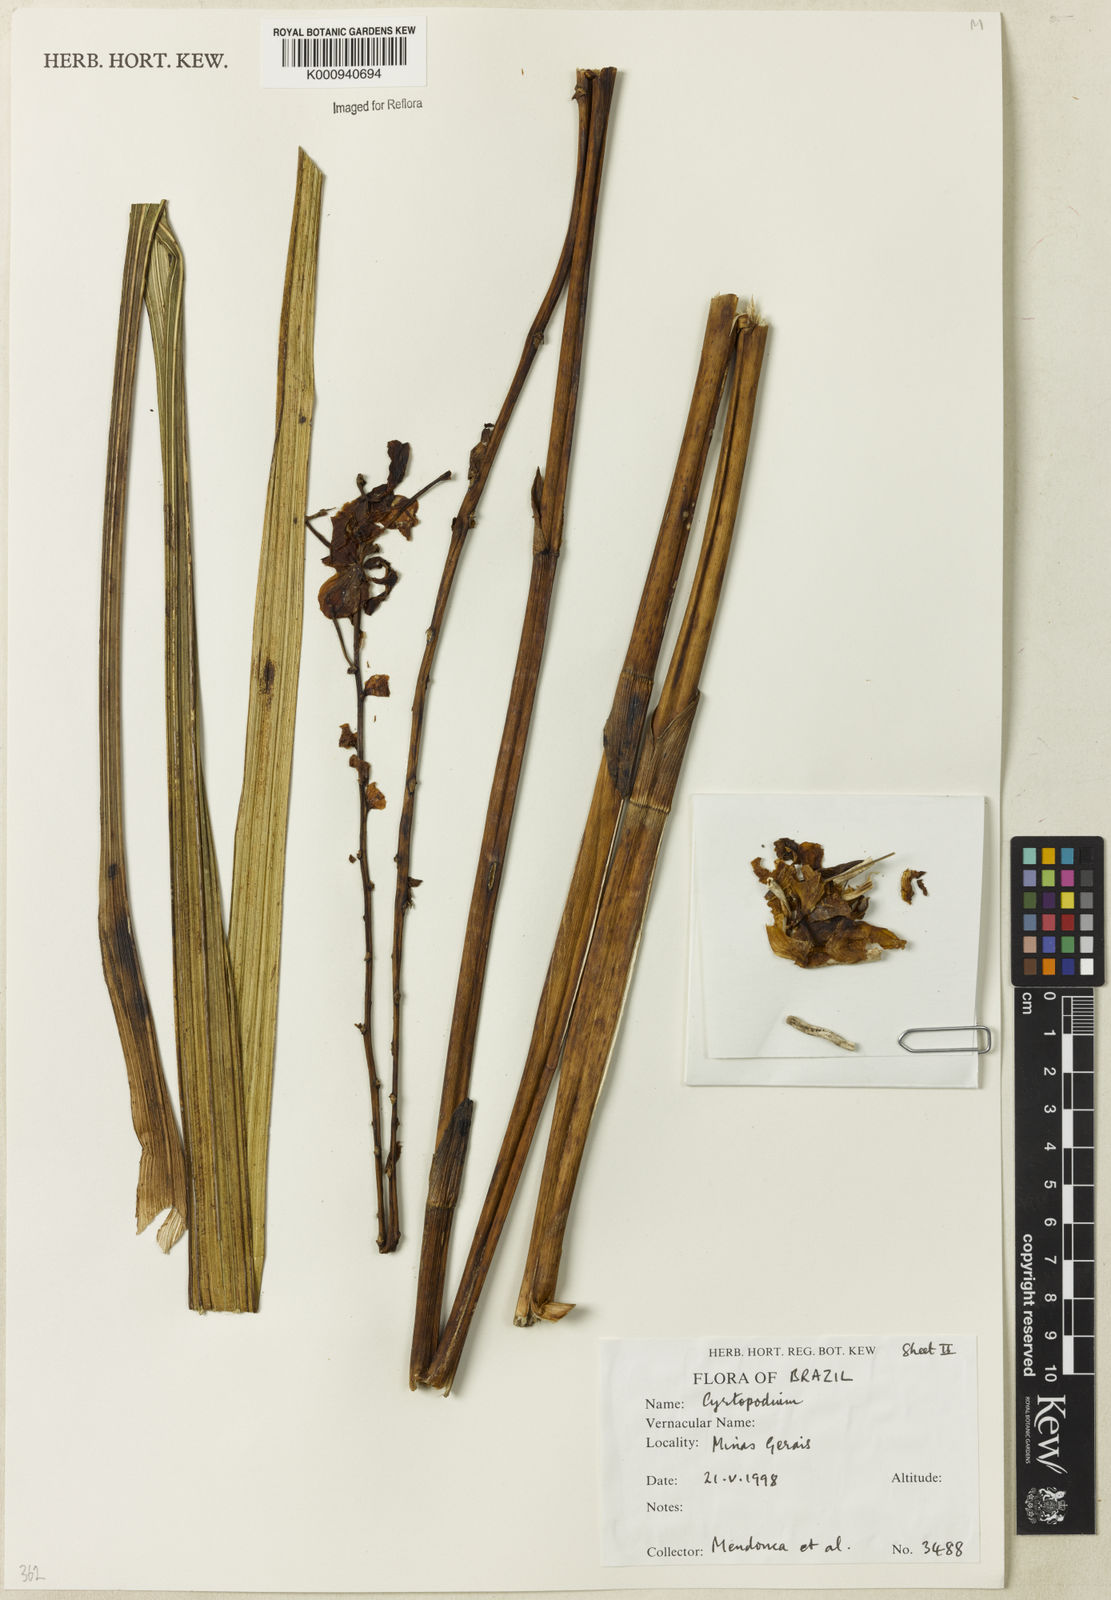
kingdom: Plantae
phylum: Tracheophyta
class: Liliopsida
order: Asparagales
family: Orchidaceae
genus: Cyrtopodium
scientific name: Cyrtopodium
